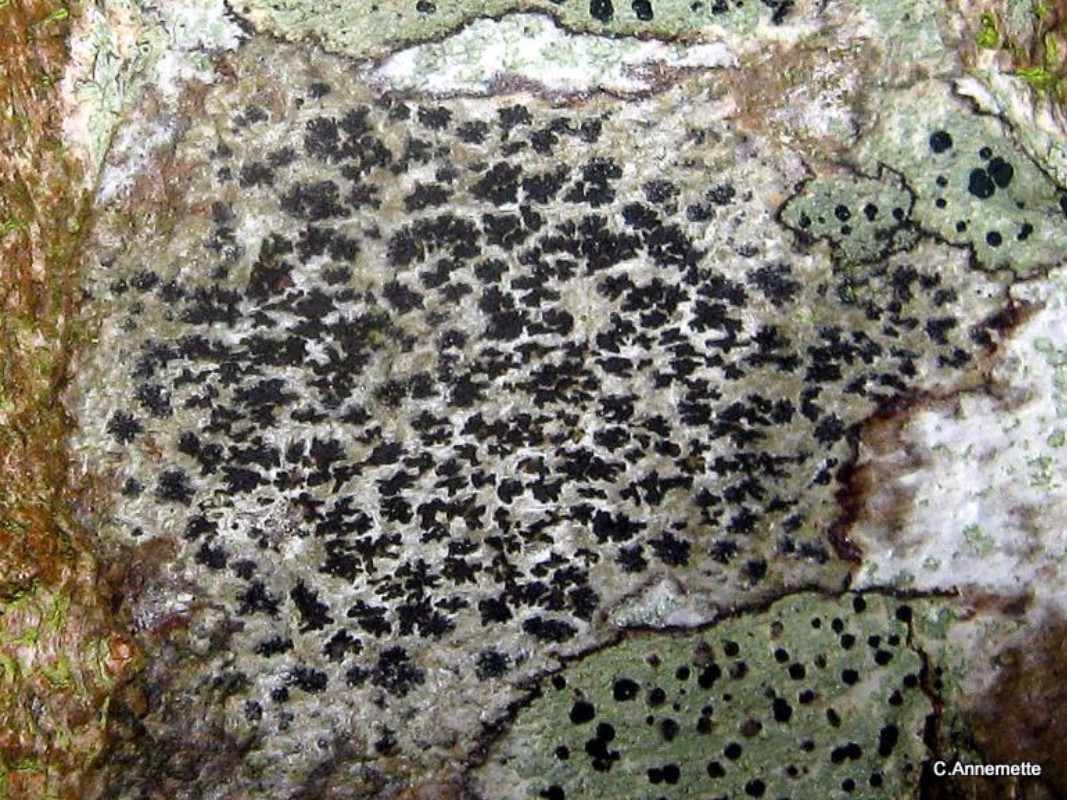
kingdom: Fungi
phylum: Ascomycota
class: Arthoniomycetes
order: Arthoniales
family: Arthoniaceae
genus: Arthonia
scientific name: Arthonia radiata
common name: stjerne-pletlav
